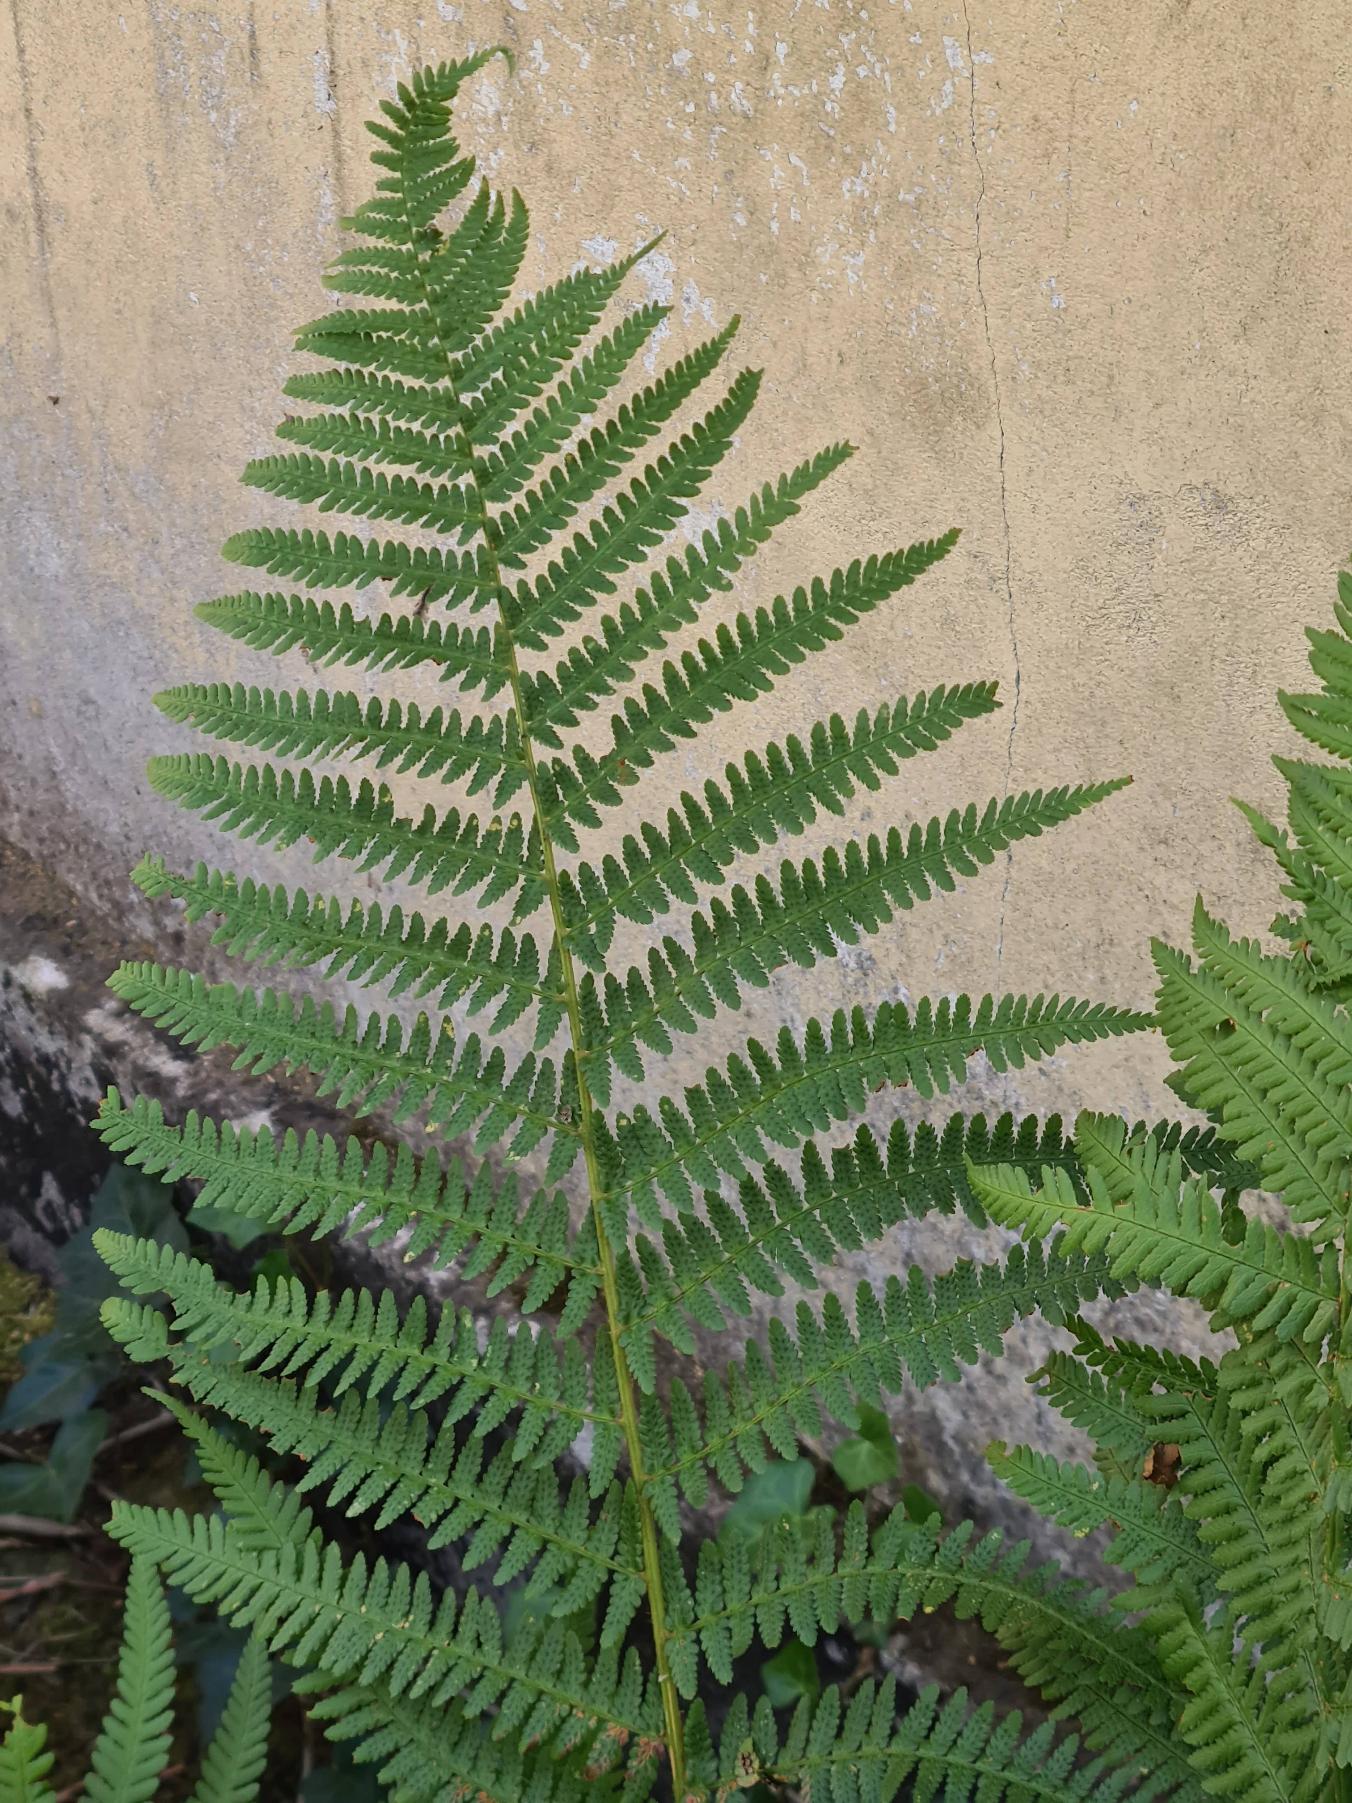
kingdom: Plantae
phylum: Tracheophyta
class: Polypodiopsida
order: Polypodiales
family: Dryopteridaceae
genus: Dryopteris
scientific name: Dryopteris filix-mas
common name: Almindelig mangeløv
